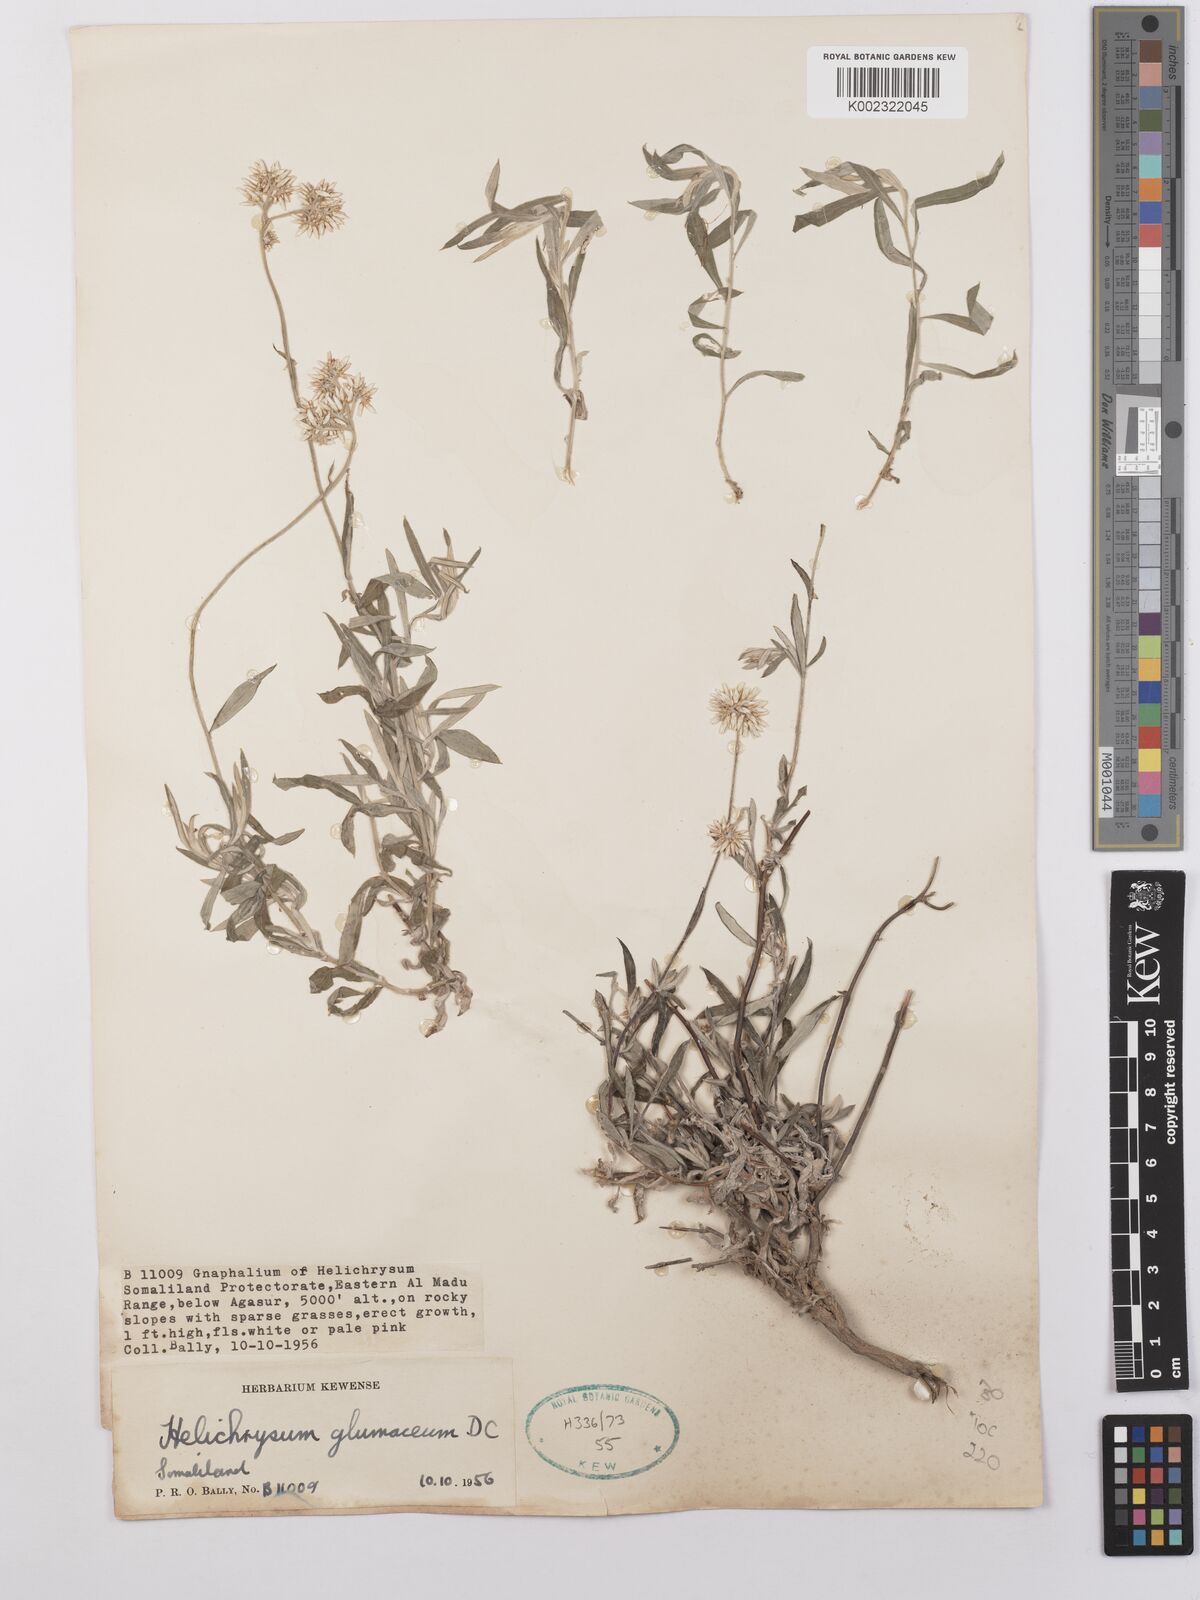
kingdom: Plantae
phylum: Tracheophyta
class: Magnoliopsida
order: Asterales
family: Asteraceae
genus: Helichrysum
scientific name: Helichrysum glumaceum
